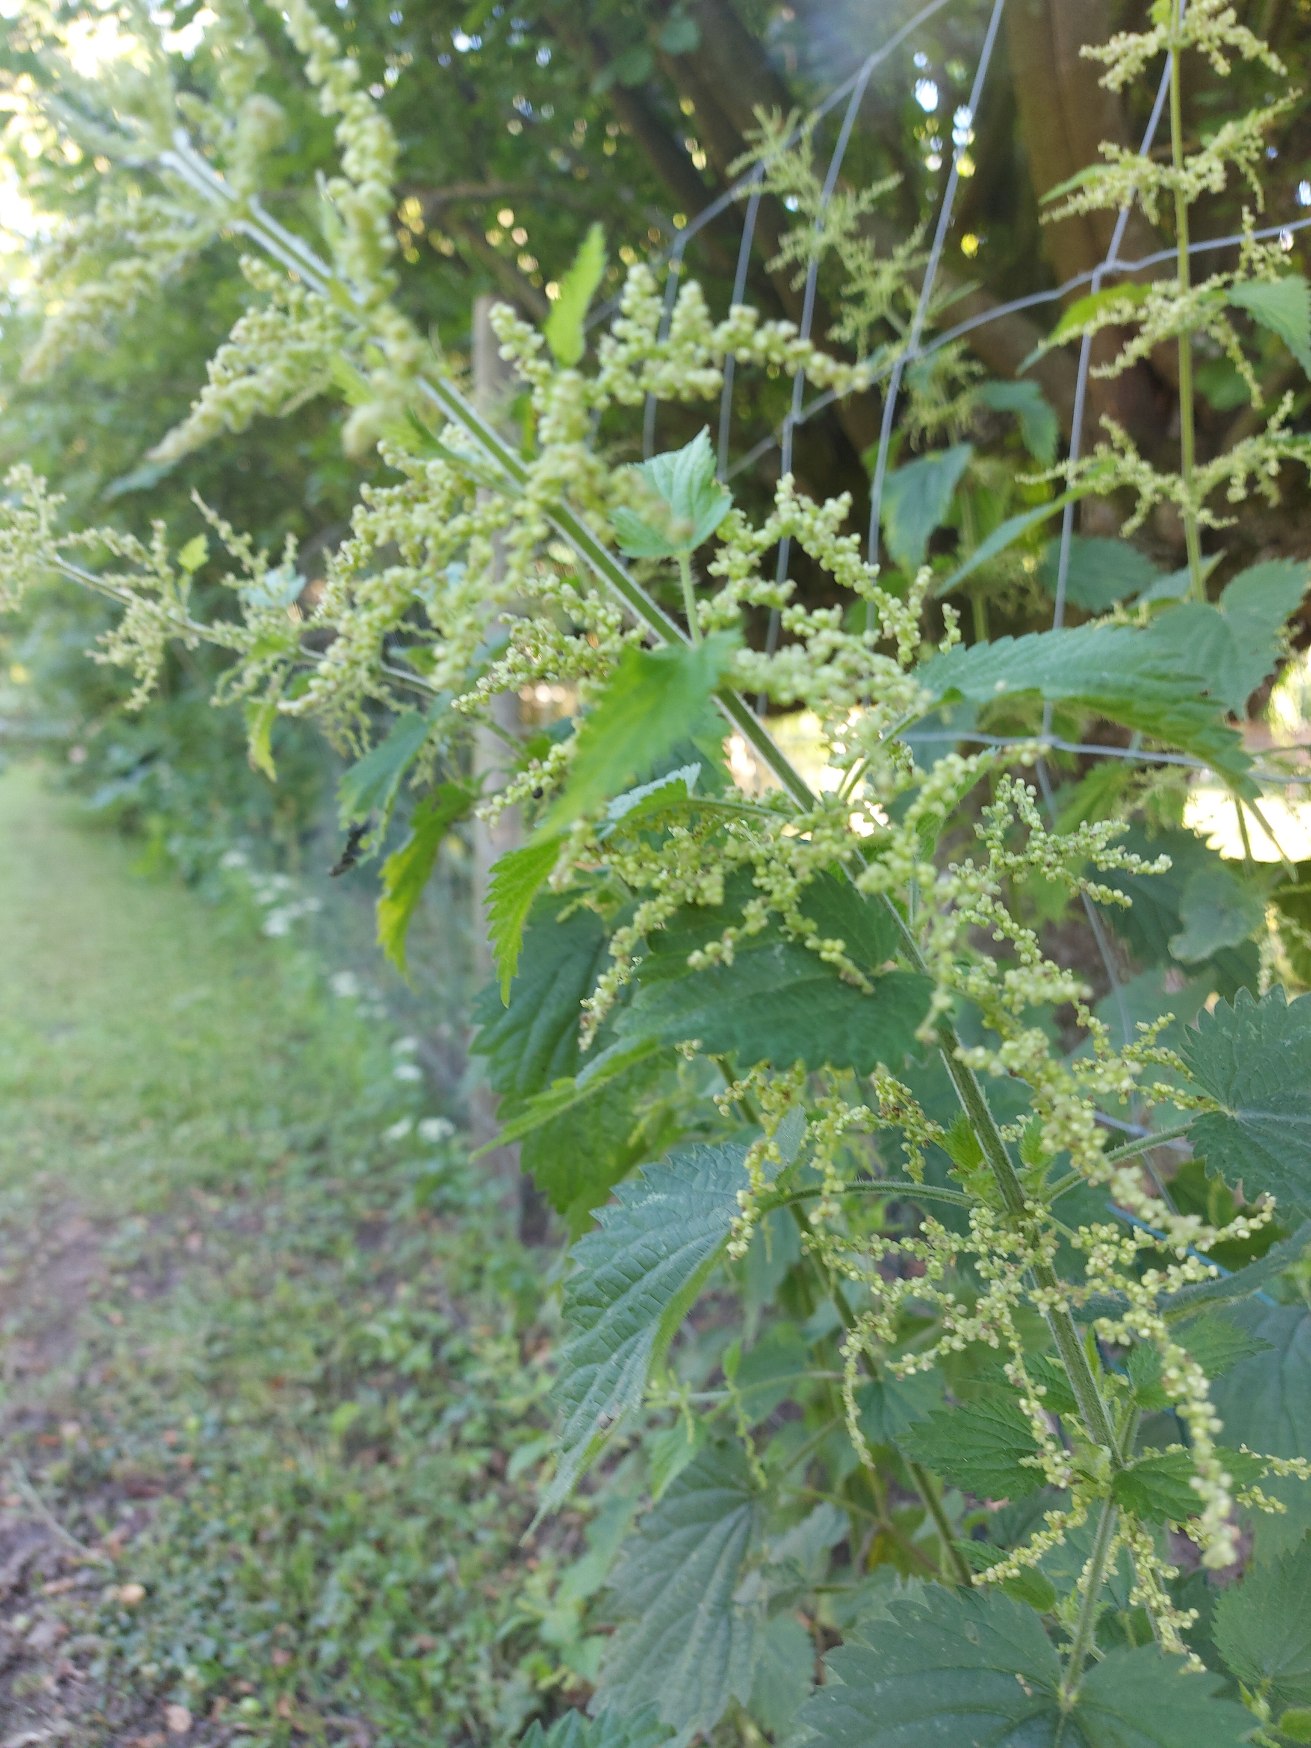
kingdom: Plantae
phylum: Tracheophyta
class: Magnoliopsida
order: Rosales
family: Urticaceae
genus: Urtica
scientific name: Urtica dioica
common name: Stor nælde
